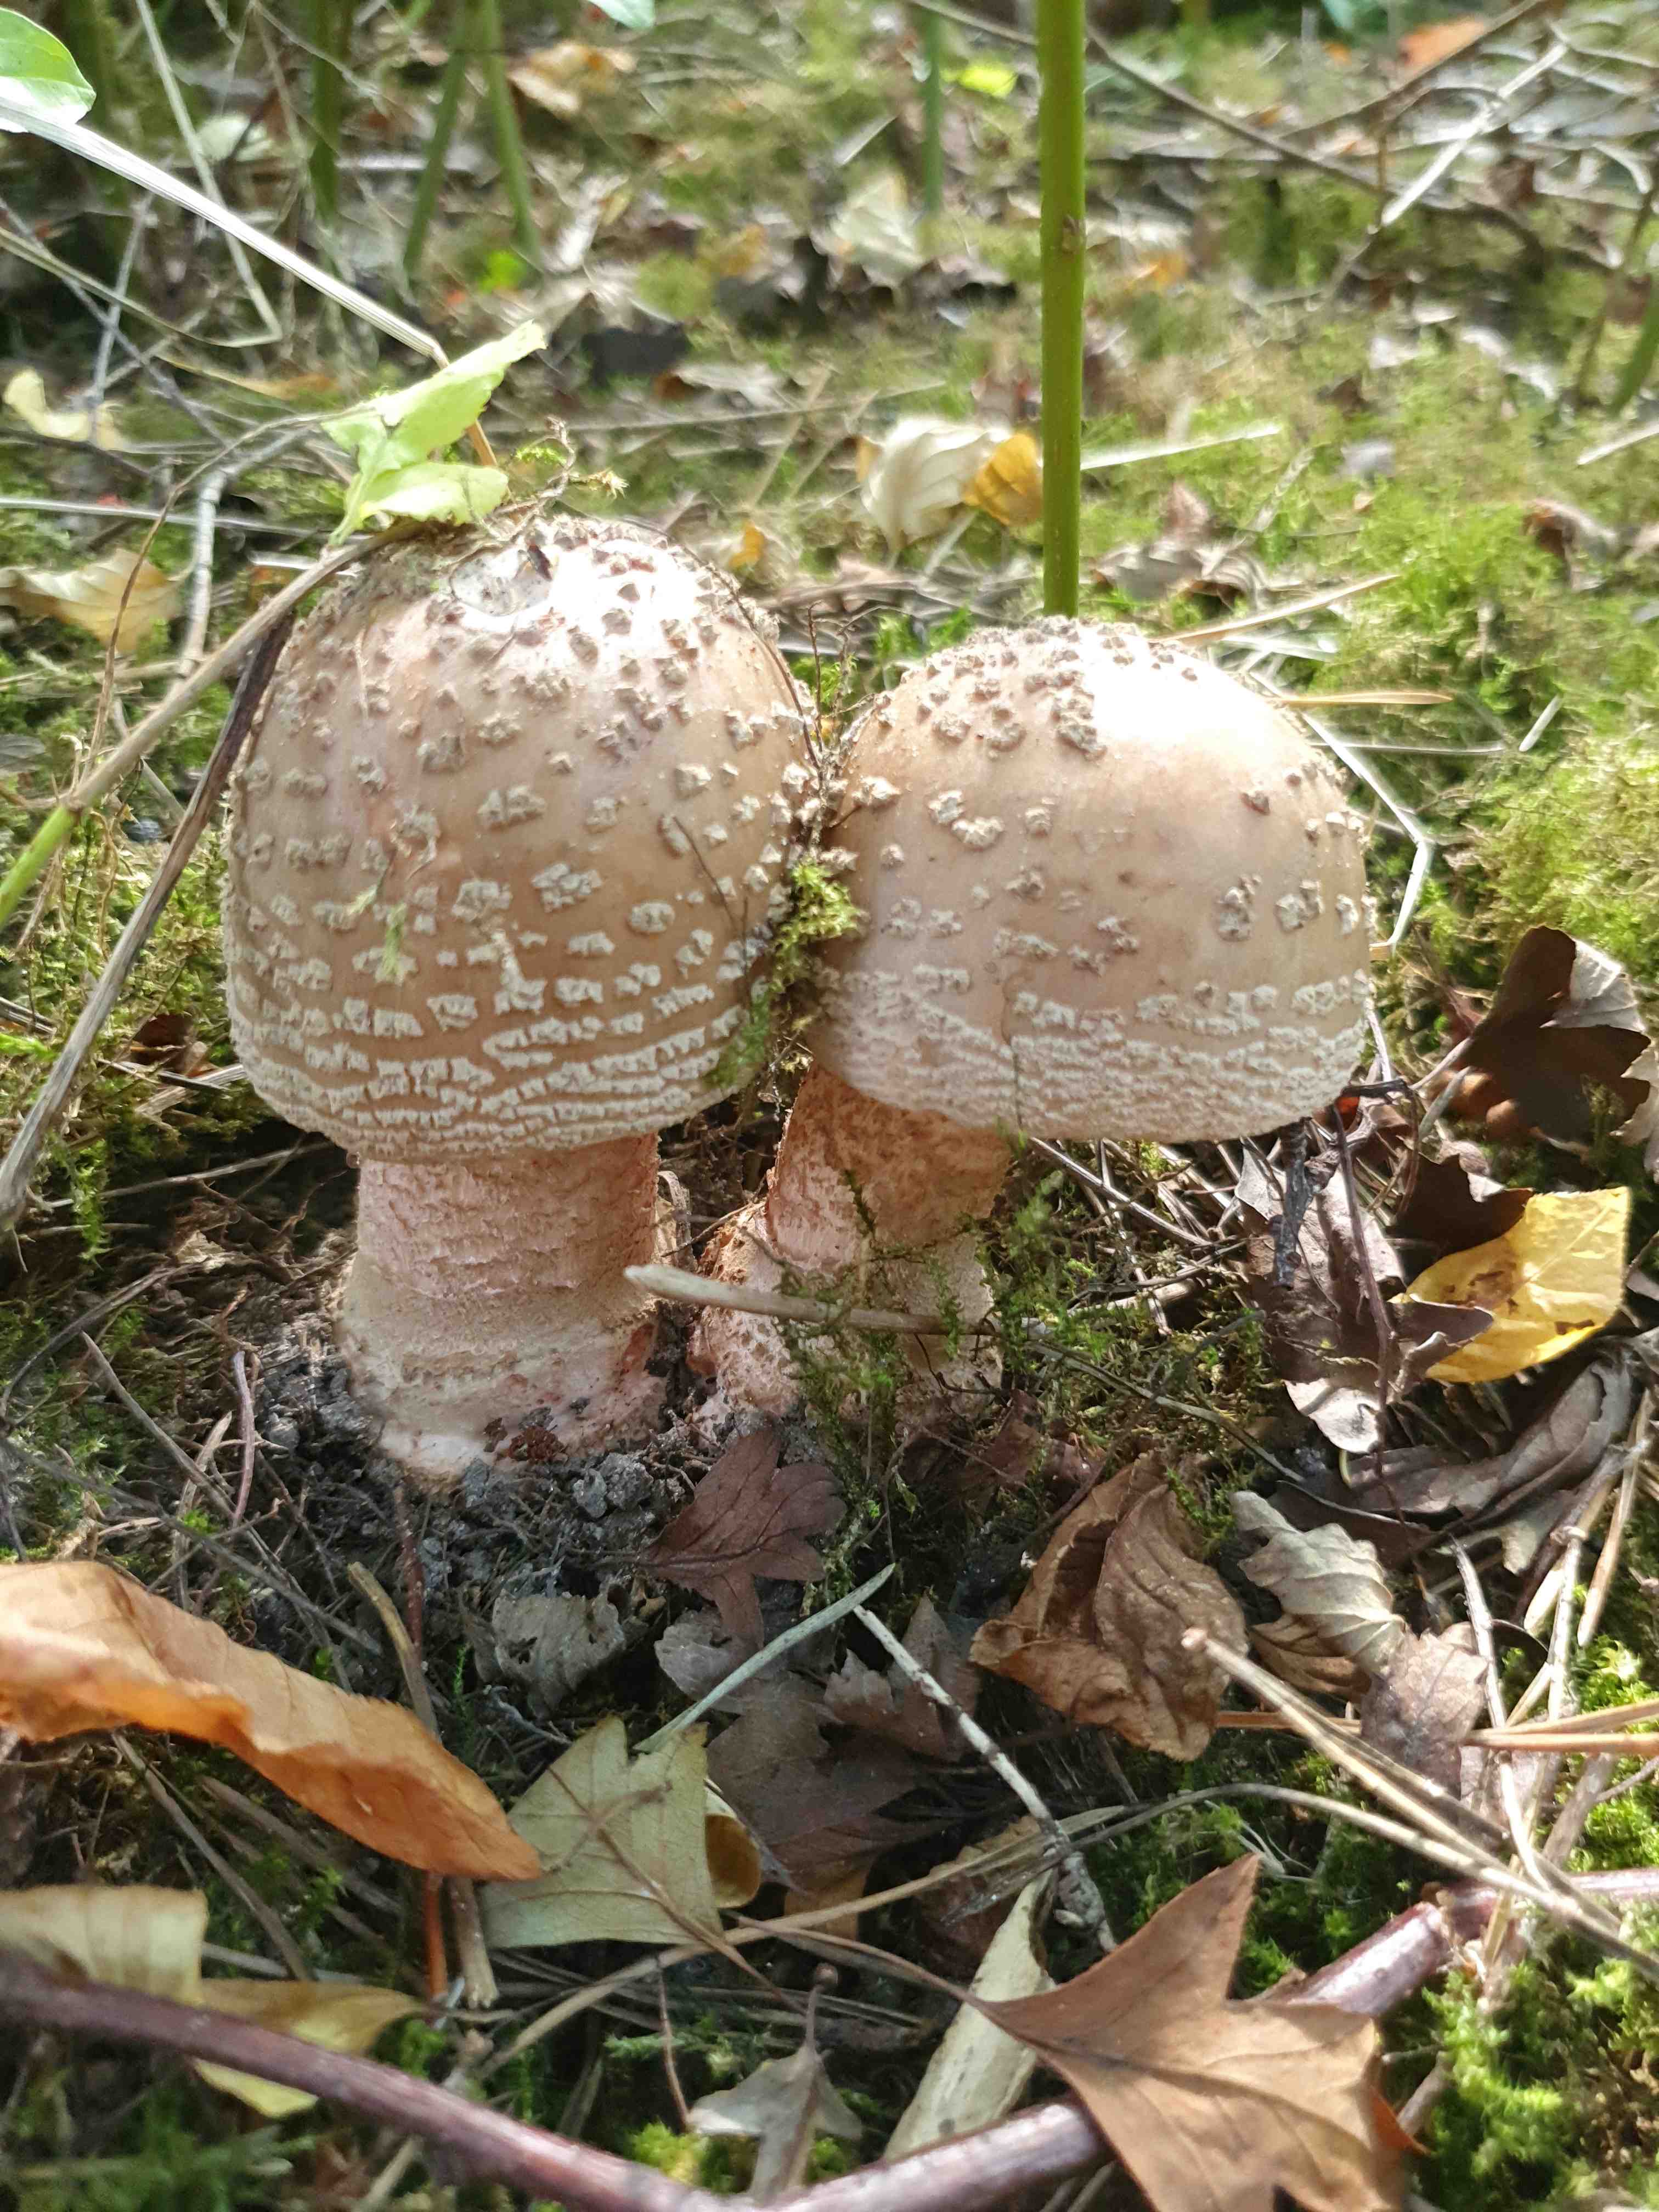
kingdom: Fungi
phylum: Basidiomycota
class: Agaricomycetes
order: Agaricales
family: Amanitaceae
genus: Amanita
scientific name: Amanita rubescens
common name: rødmende fluesvamp
